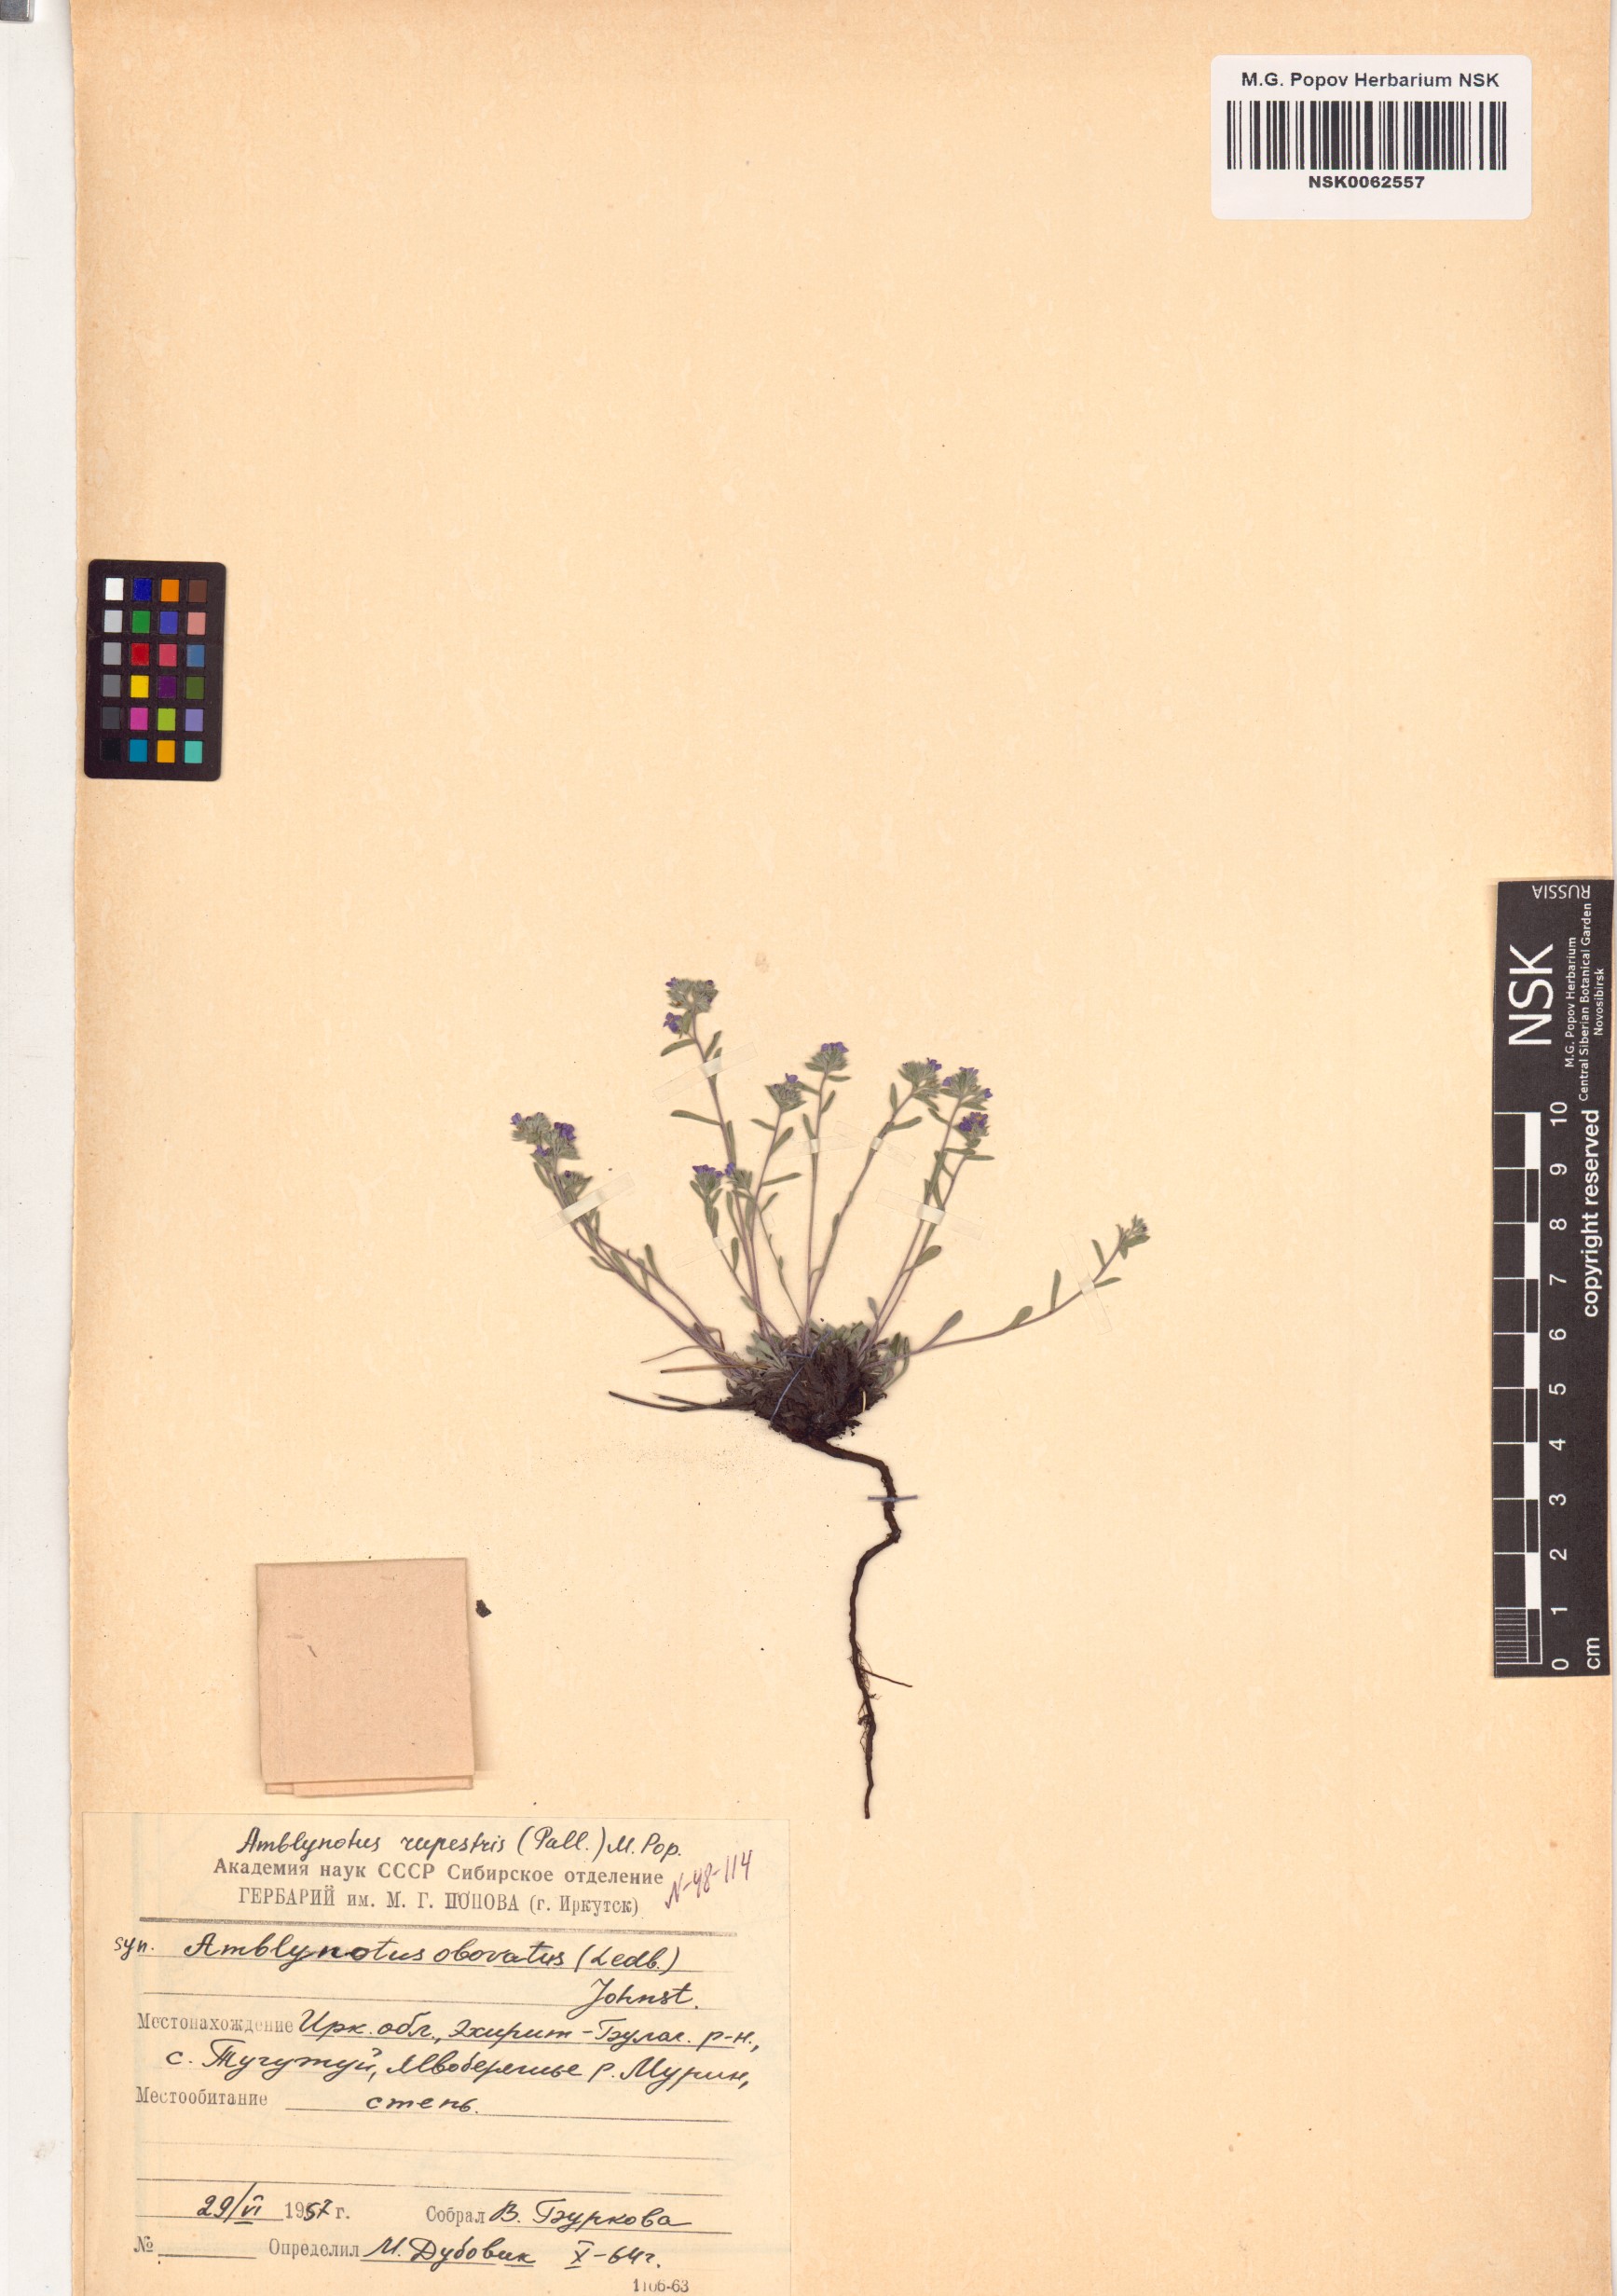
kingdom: Plantae
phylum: Tracheophyta
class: Magnoliopsida
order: Boraginales
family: Boraginaceae
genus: Eritrichium
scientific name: Eritrichium rupestre
